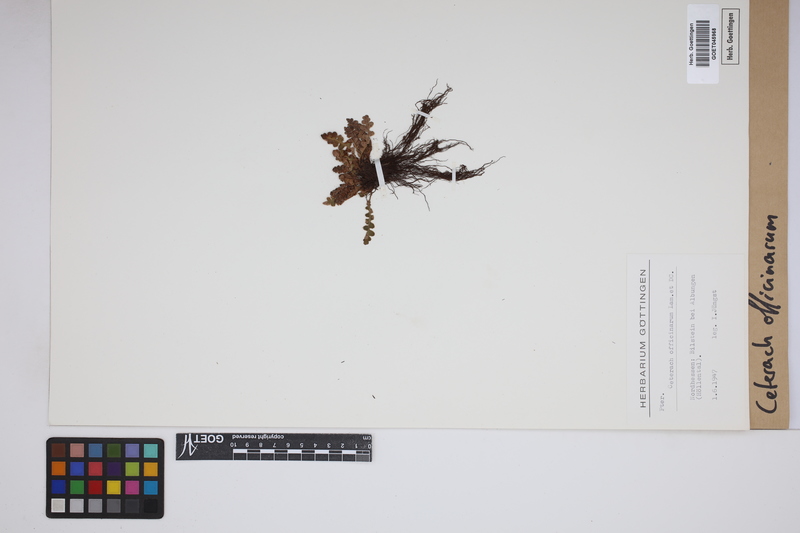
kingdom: Plantae
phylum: Tracheophyta
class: Polypodiopsida
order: Polypodiales
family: Aspleniaceae
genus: Asplenium
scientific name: Asplenium ceterach
